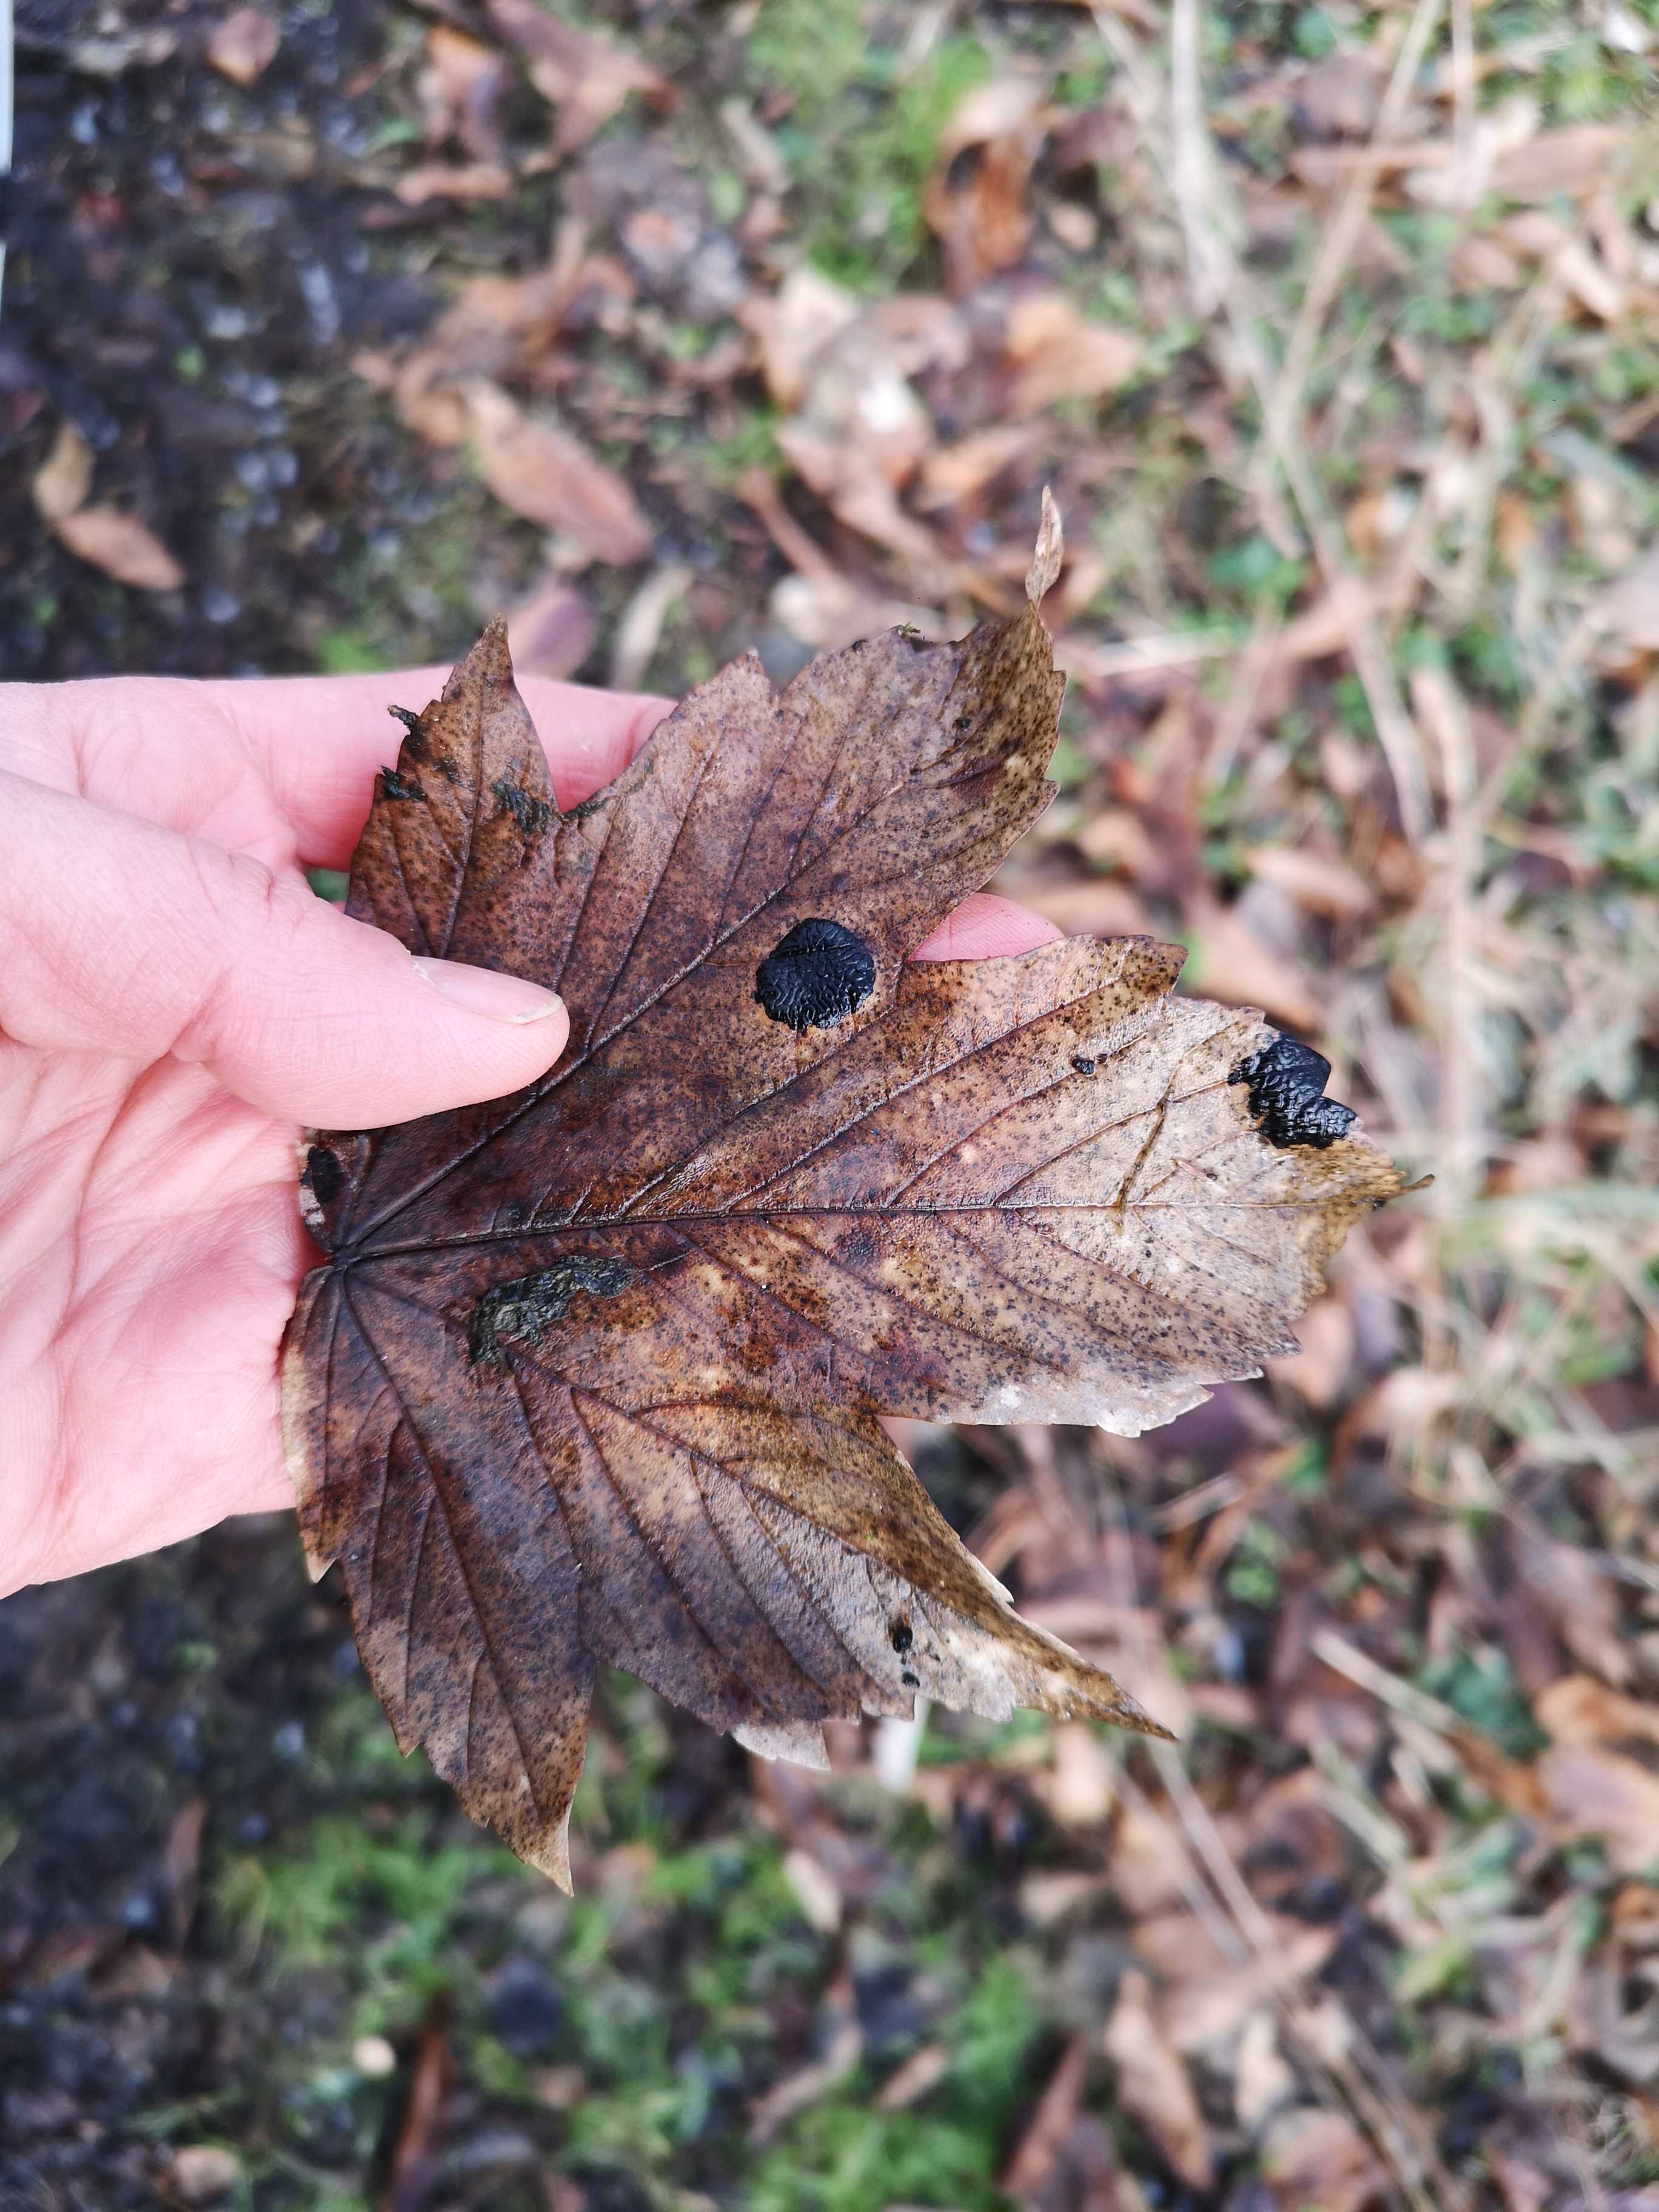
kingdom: Fungi
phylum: Ascomycota
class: Leotiomycetes
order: Rhytismatales
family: Rhytismataceae
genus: Rhytisma
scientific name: Rhytisma acerinum
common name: ahorn-rynkeplet
